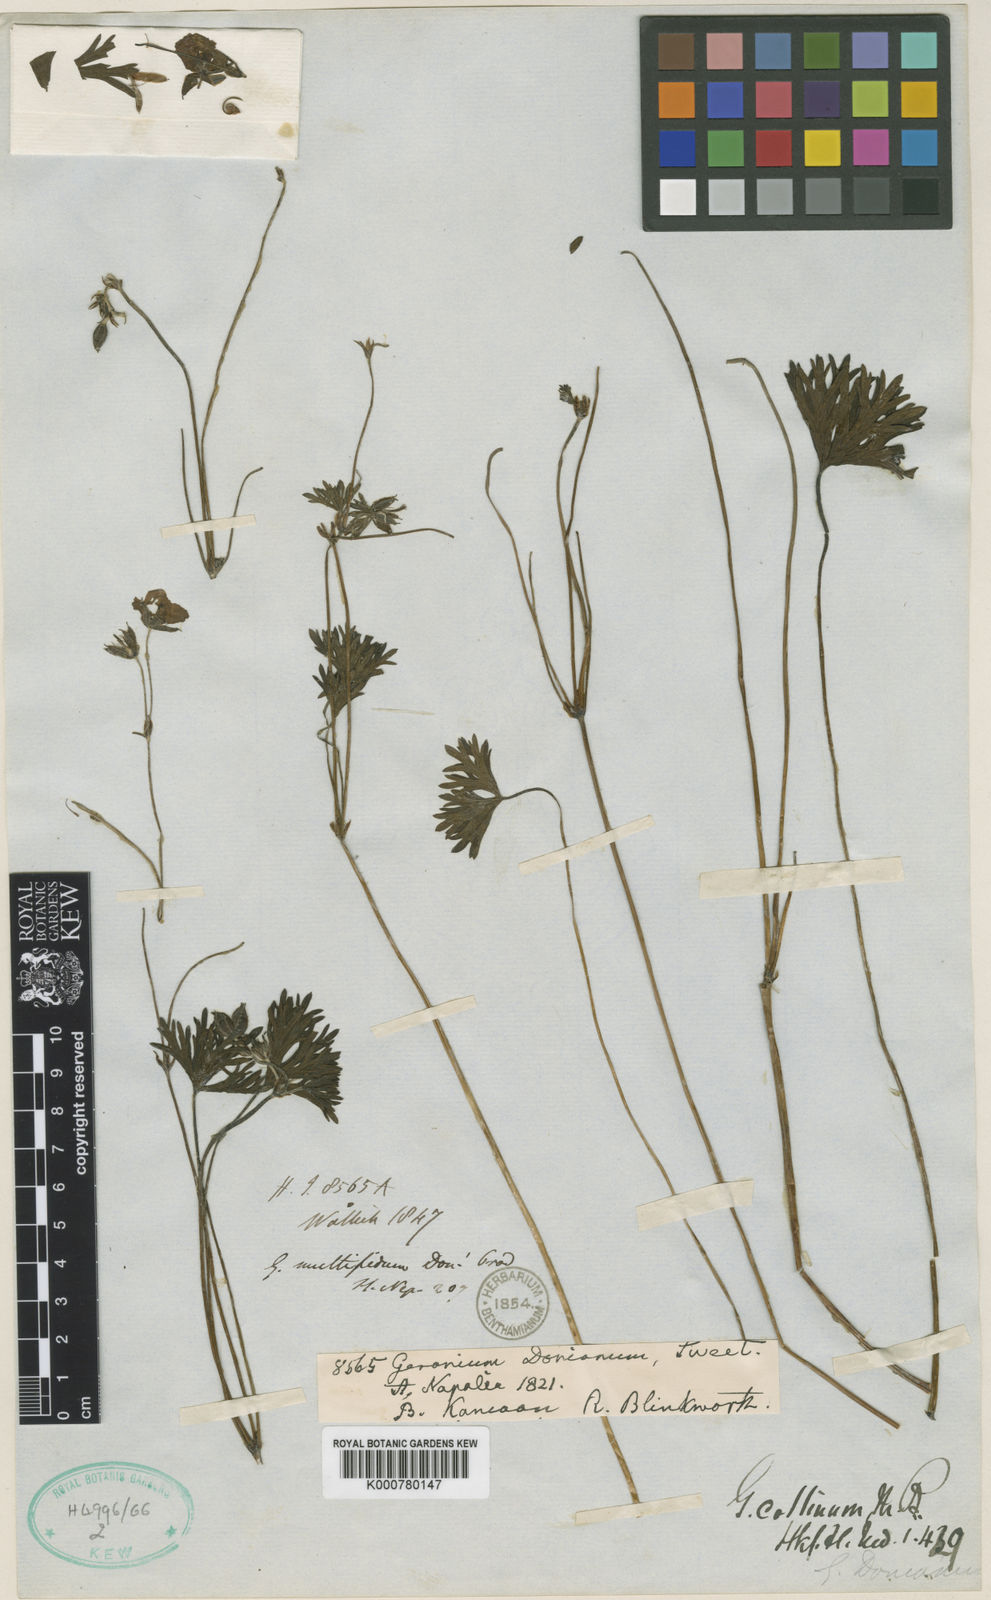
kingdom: Plantae
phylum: Tracheophyta
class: Magnoliopsida
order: Geraniales
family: Geraniaceae
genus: Geranium
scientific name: Geranium donianum
